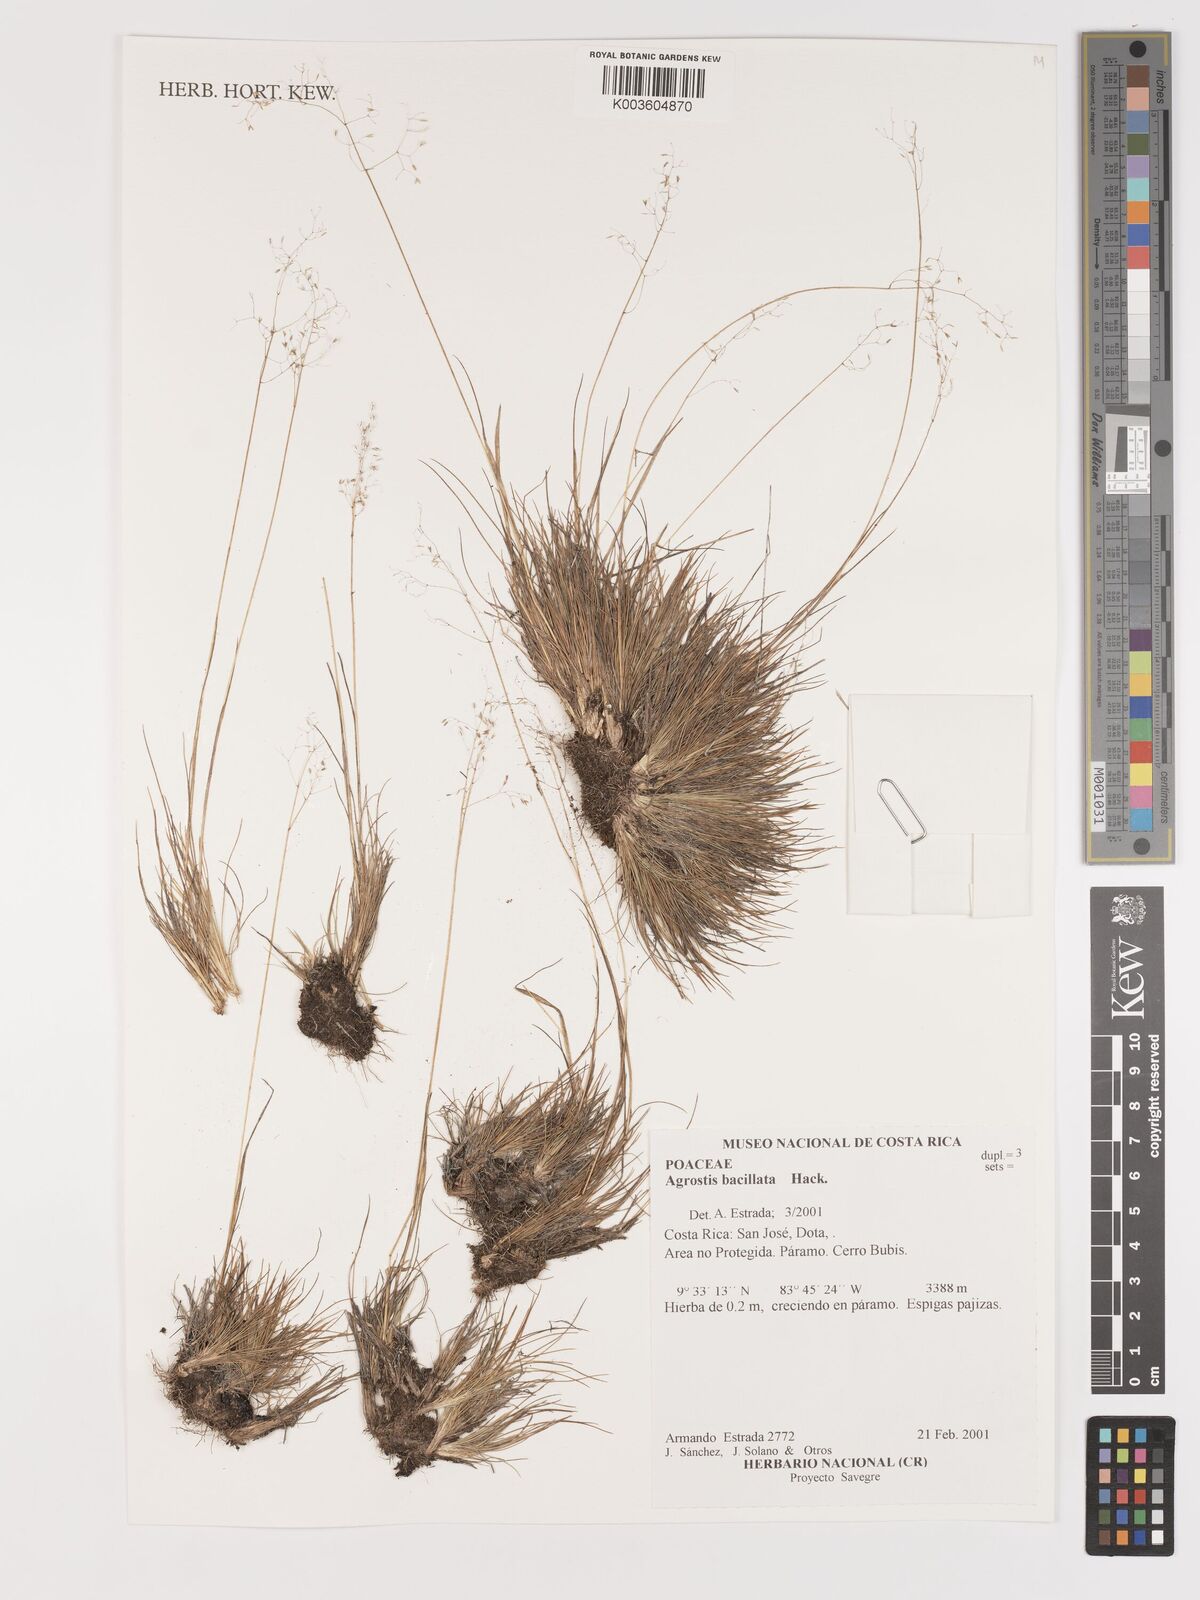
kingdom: Plantae
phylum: Tracheophyta
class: Liliopsida
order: Poales
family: Poaceae
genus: Podagrostis
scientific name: Podagrostis bacillata
